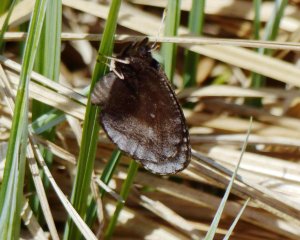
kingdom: Animalia
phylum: Arthropoda
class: Insecta
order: Lepidoptera
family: Nymphalidae
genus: Erebia
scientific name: Erebia discoidalis
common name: Red-disked Alpine
